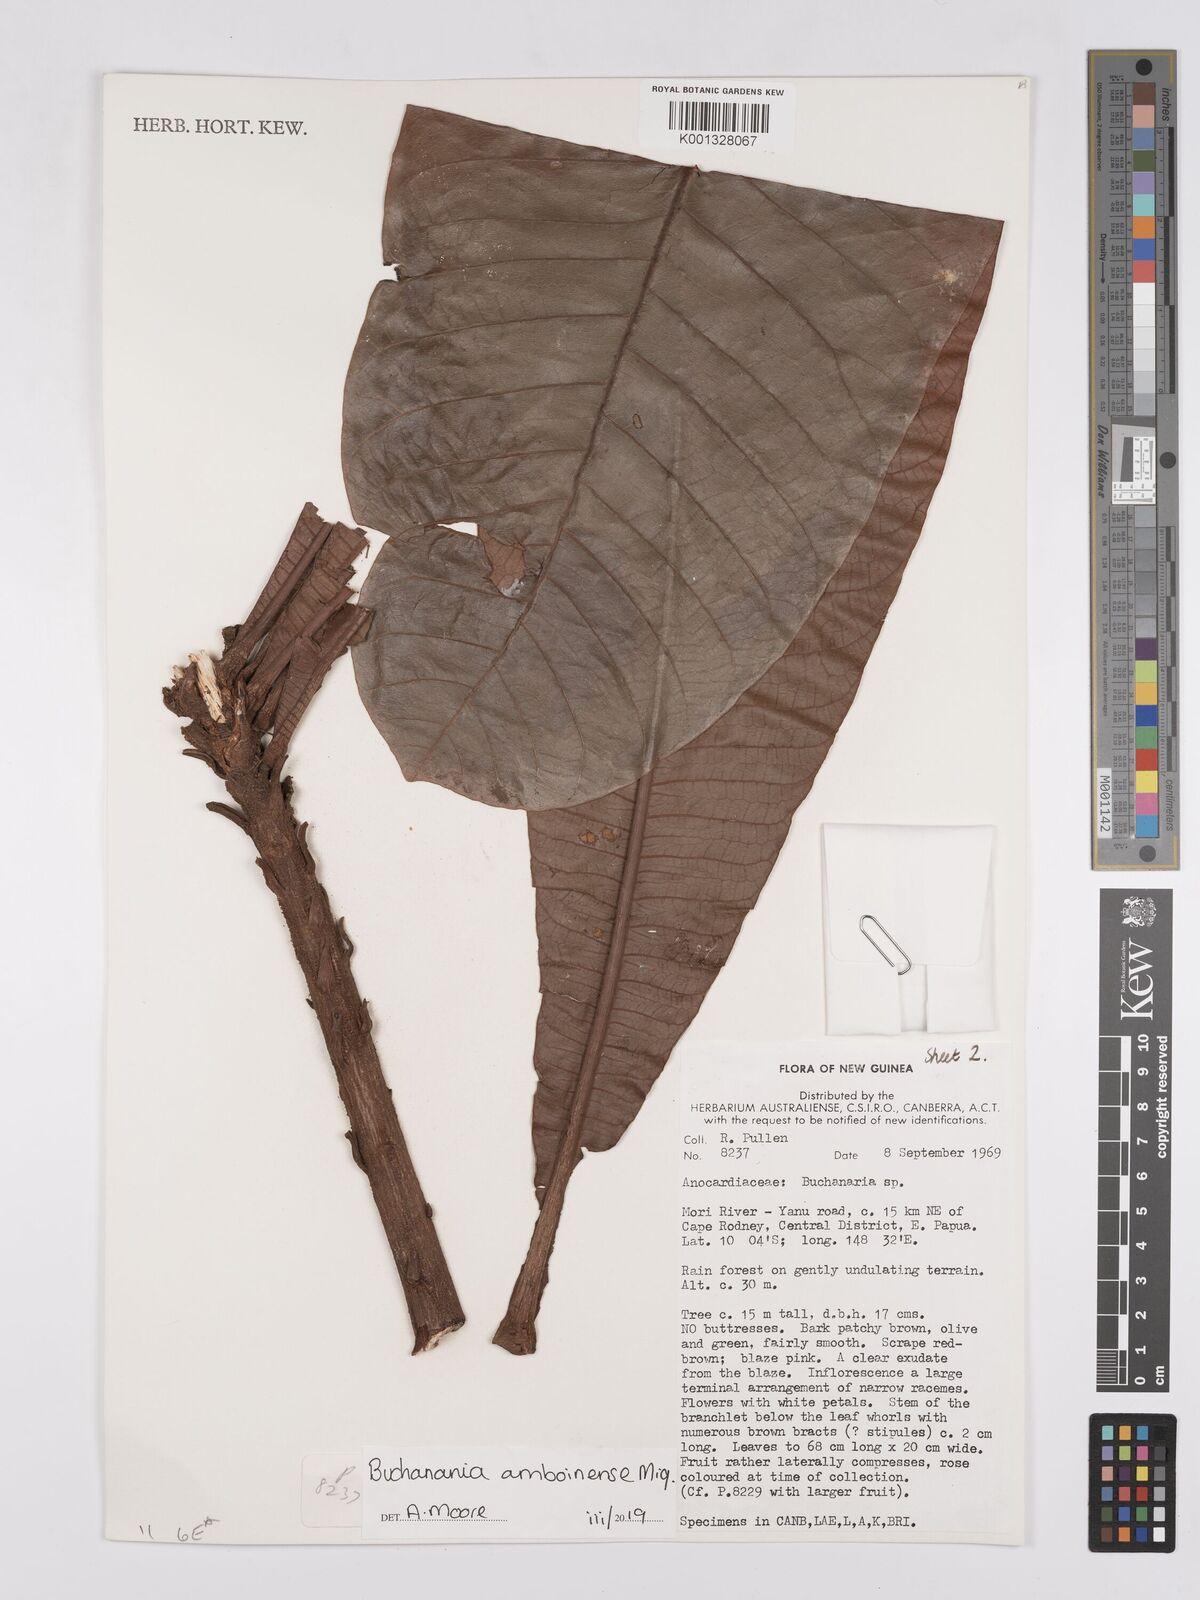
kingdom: Plantae
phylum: Tracheophyta
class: Magnoliopsida
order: Sapindales
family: Anacardiaceae
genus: Buchanania
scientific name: Buchanania
